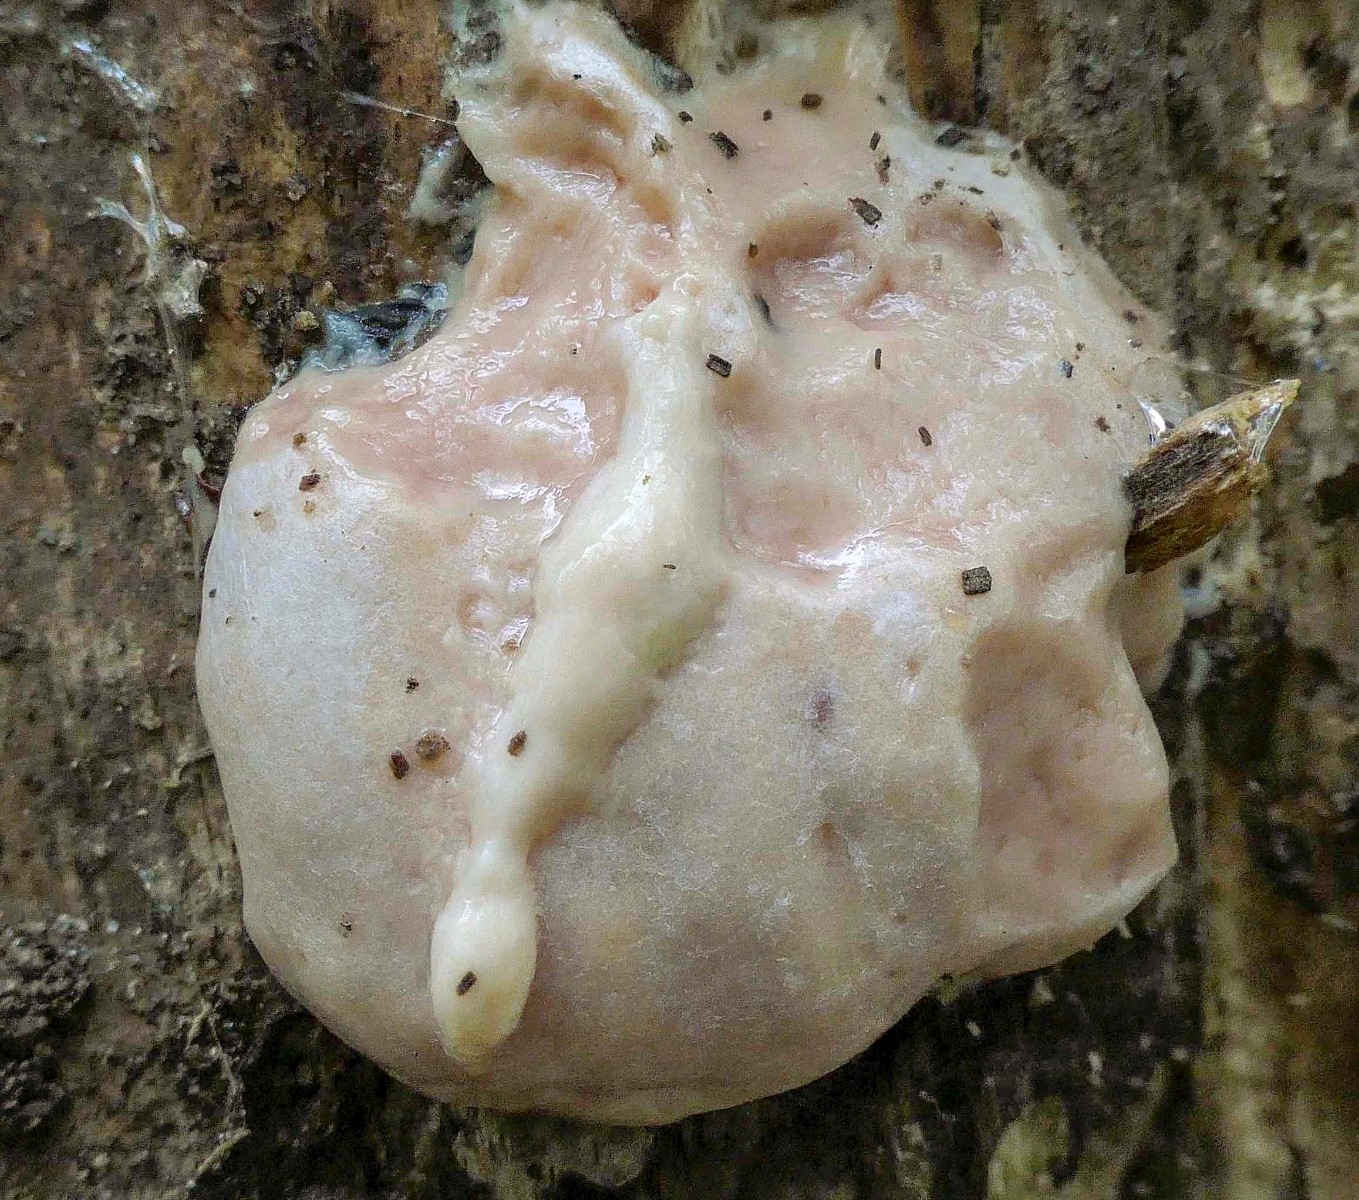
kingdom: Protozoa
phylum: Mycetozoa
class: Myxomycetes
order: Cribrariales
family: Tubiferaceae
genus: Reticularia
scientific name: Reticularia lycoperdon
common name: skinnende støvpude
